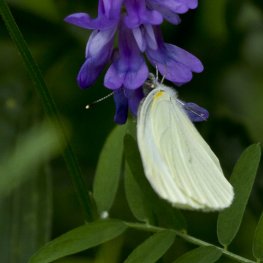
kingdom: Animalia
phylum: Arthropoda
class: Insecta
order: Lepidoptera
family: Pieridae
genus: Pieris
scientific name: Pieris oleracea
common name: Mustard White
